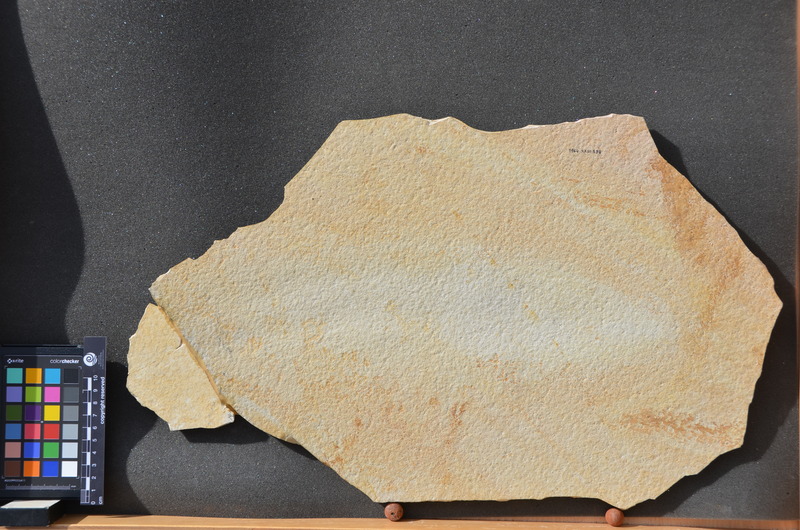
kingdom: Animalia
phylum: Chordata
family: Aspidorhynchidae
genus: Aspidorhynchus
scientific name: Aspidorhynchus acutirostris
